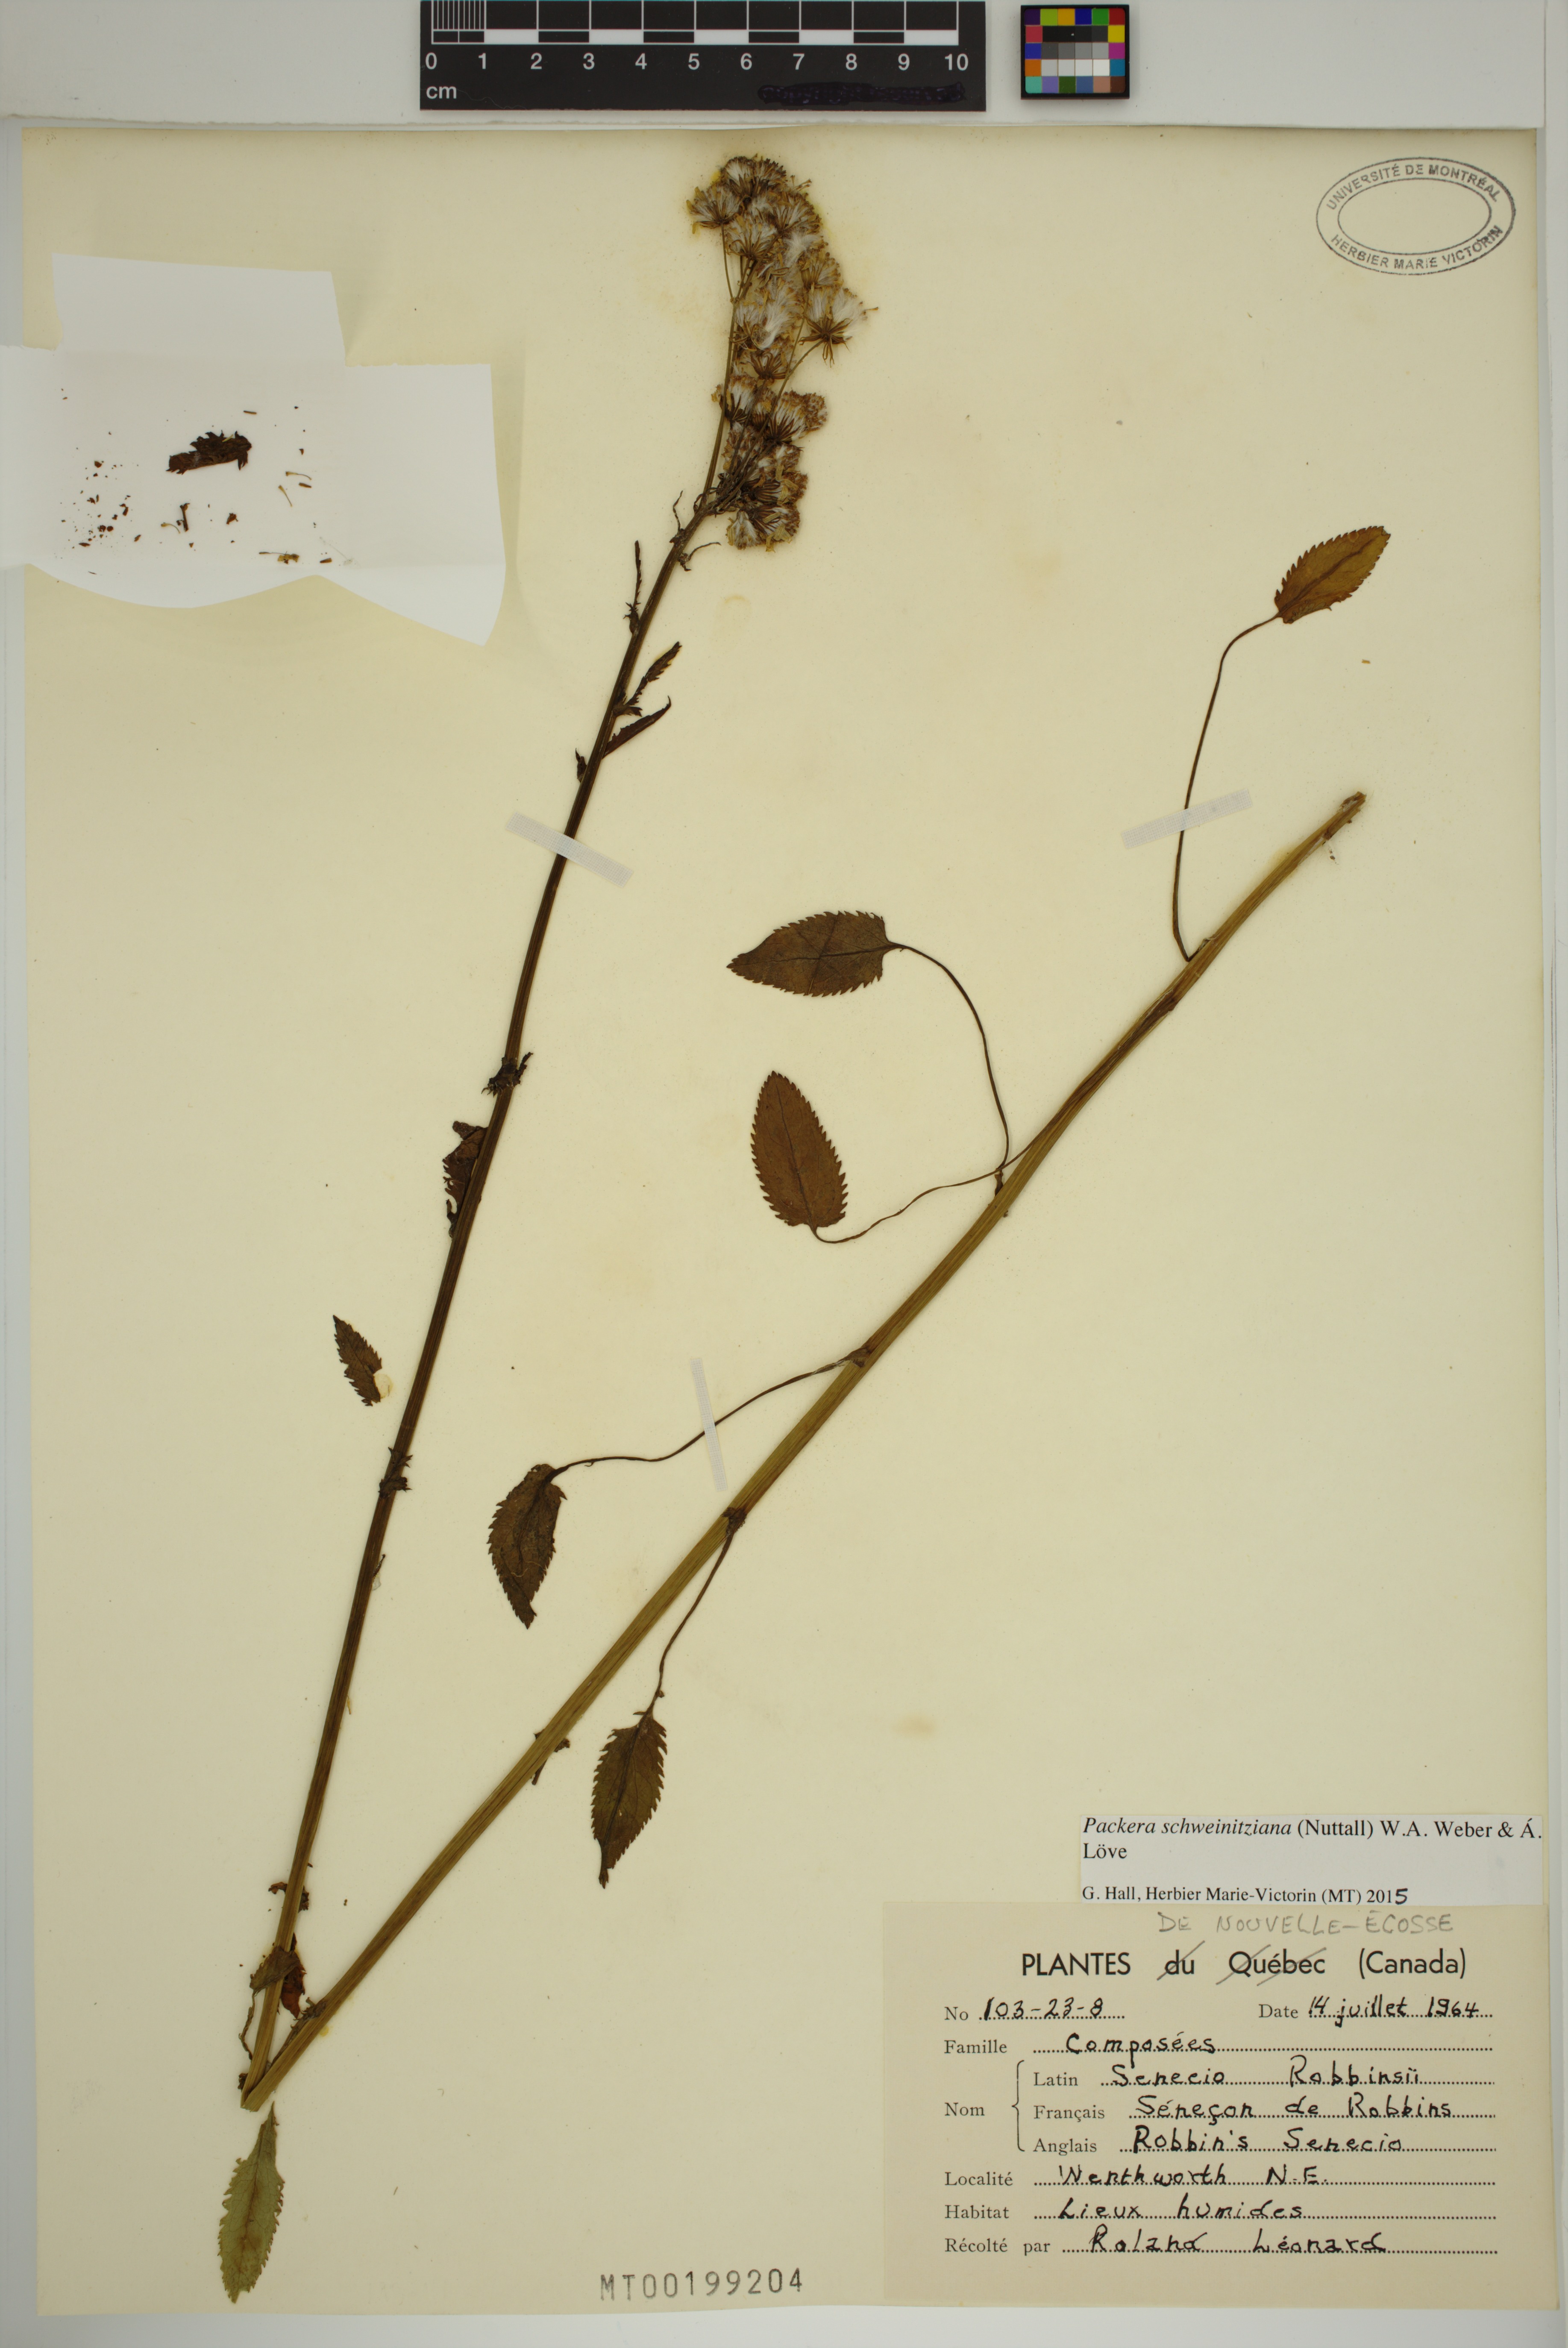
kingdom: Plantae
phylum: Tracheophyta
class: Magnoliopsida
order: Asterales
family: Asteraceae
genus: Packera
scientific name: Packera schweinitziana
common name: Schweinitz's ragwort
